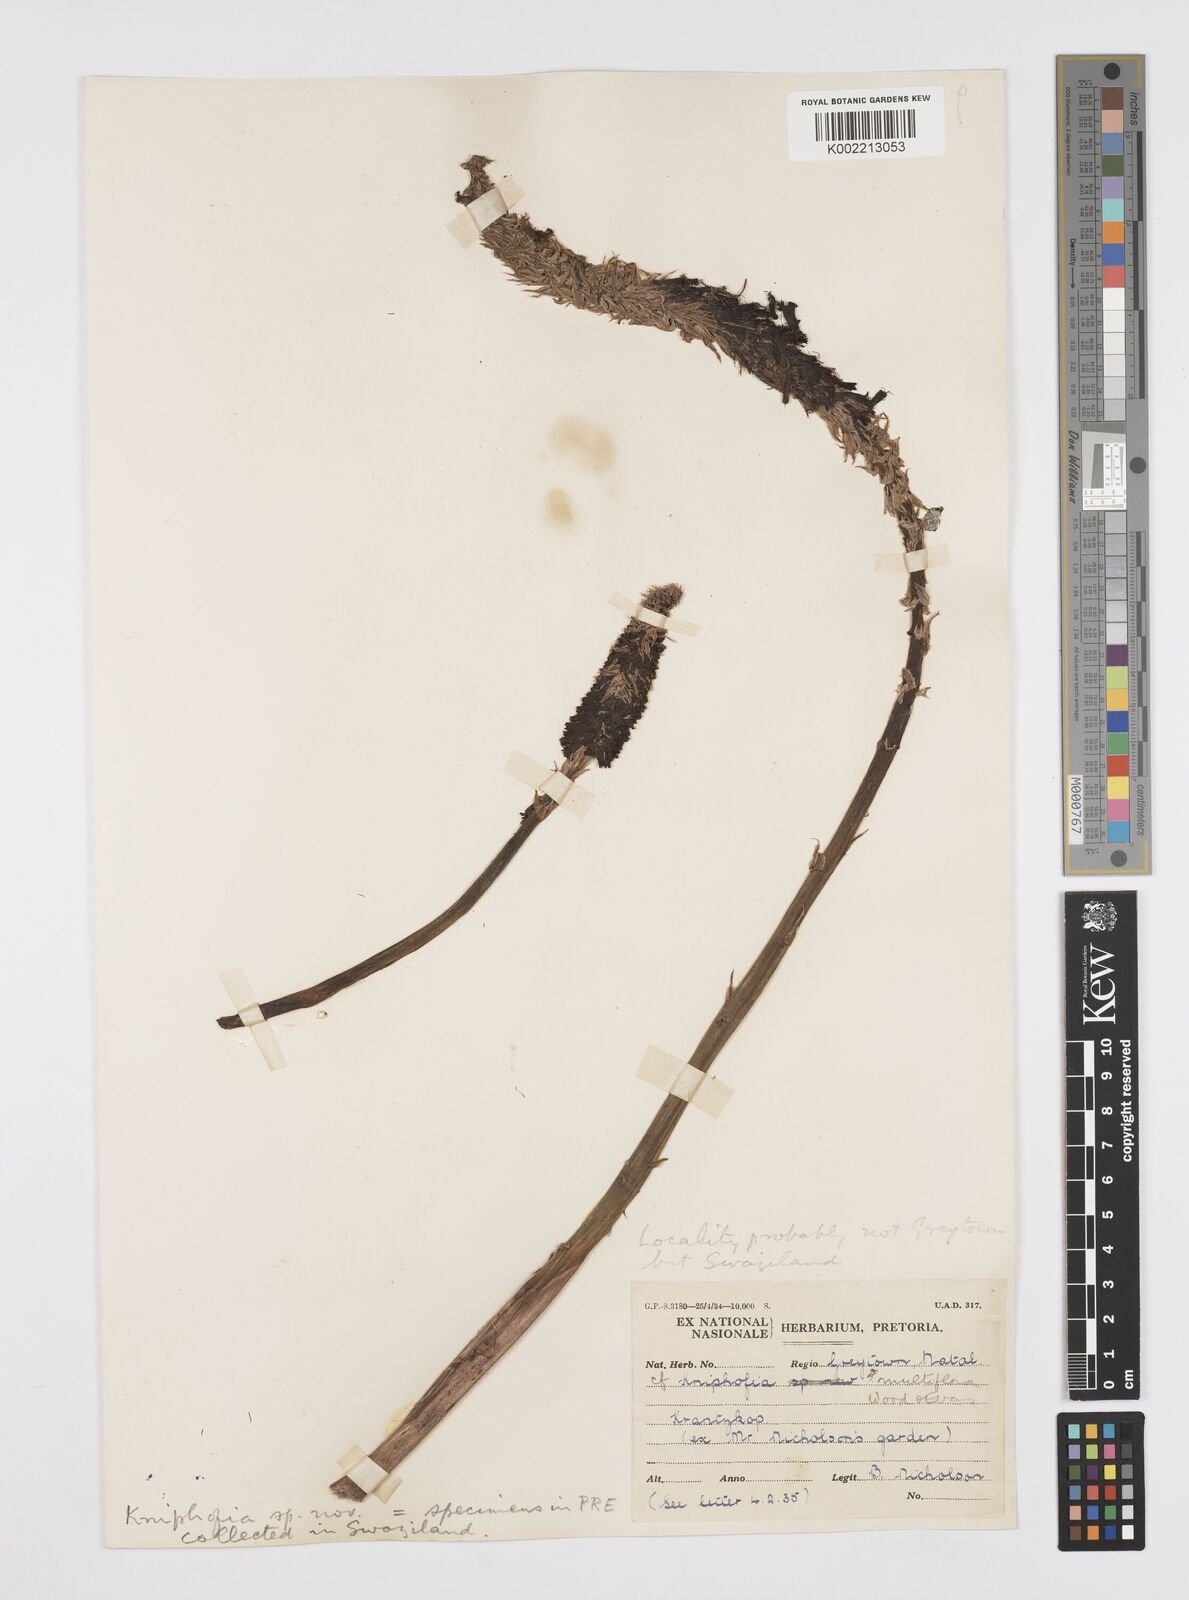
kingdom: Plantae
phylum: Tracheophyta
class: Liliopsida
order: Asparagales
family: Asphodelaceae
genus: Kniphofia
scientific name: Kniphofia multiflora
